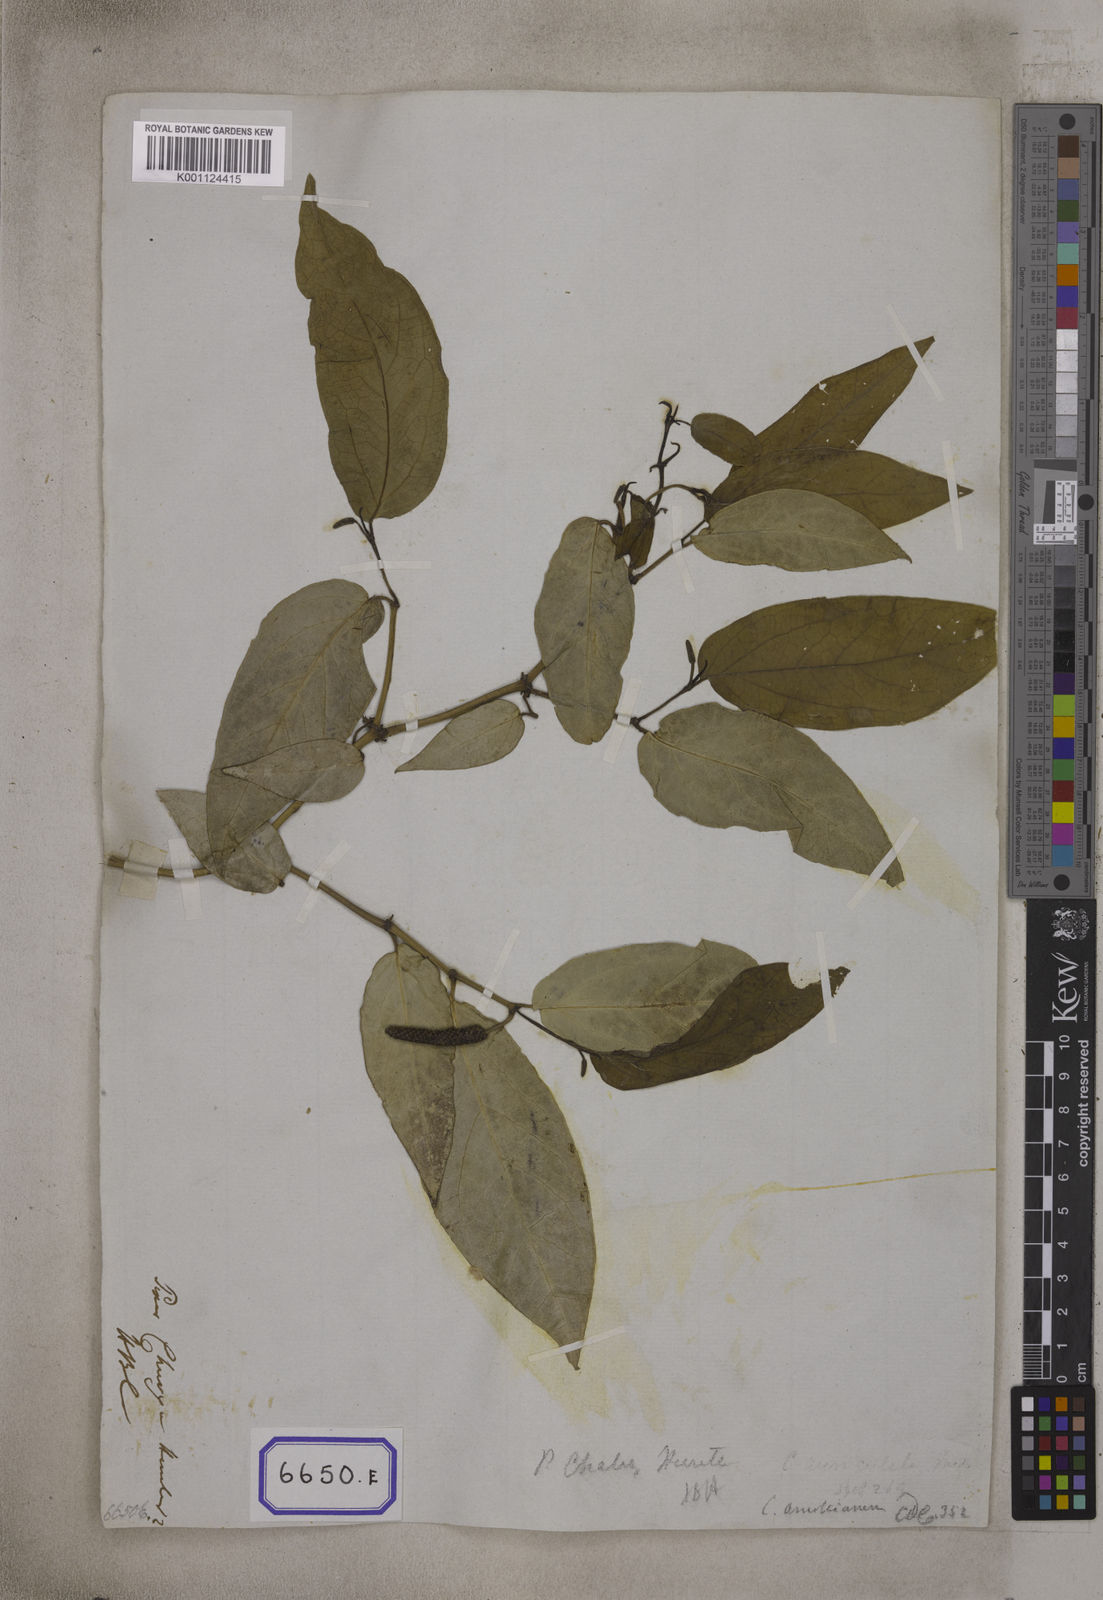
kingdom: Plantae
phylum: Tracheophyta
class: Magnoliopsida
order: Piperales
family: Piperaceae
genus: Piper
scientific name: Piper
